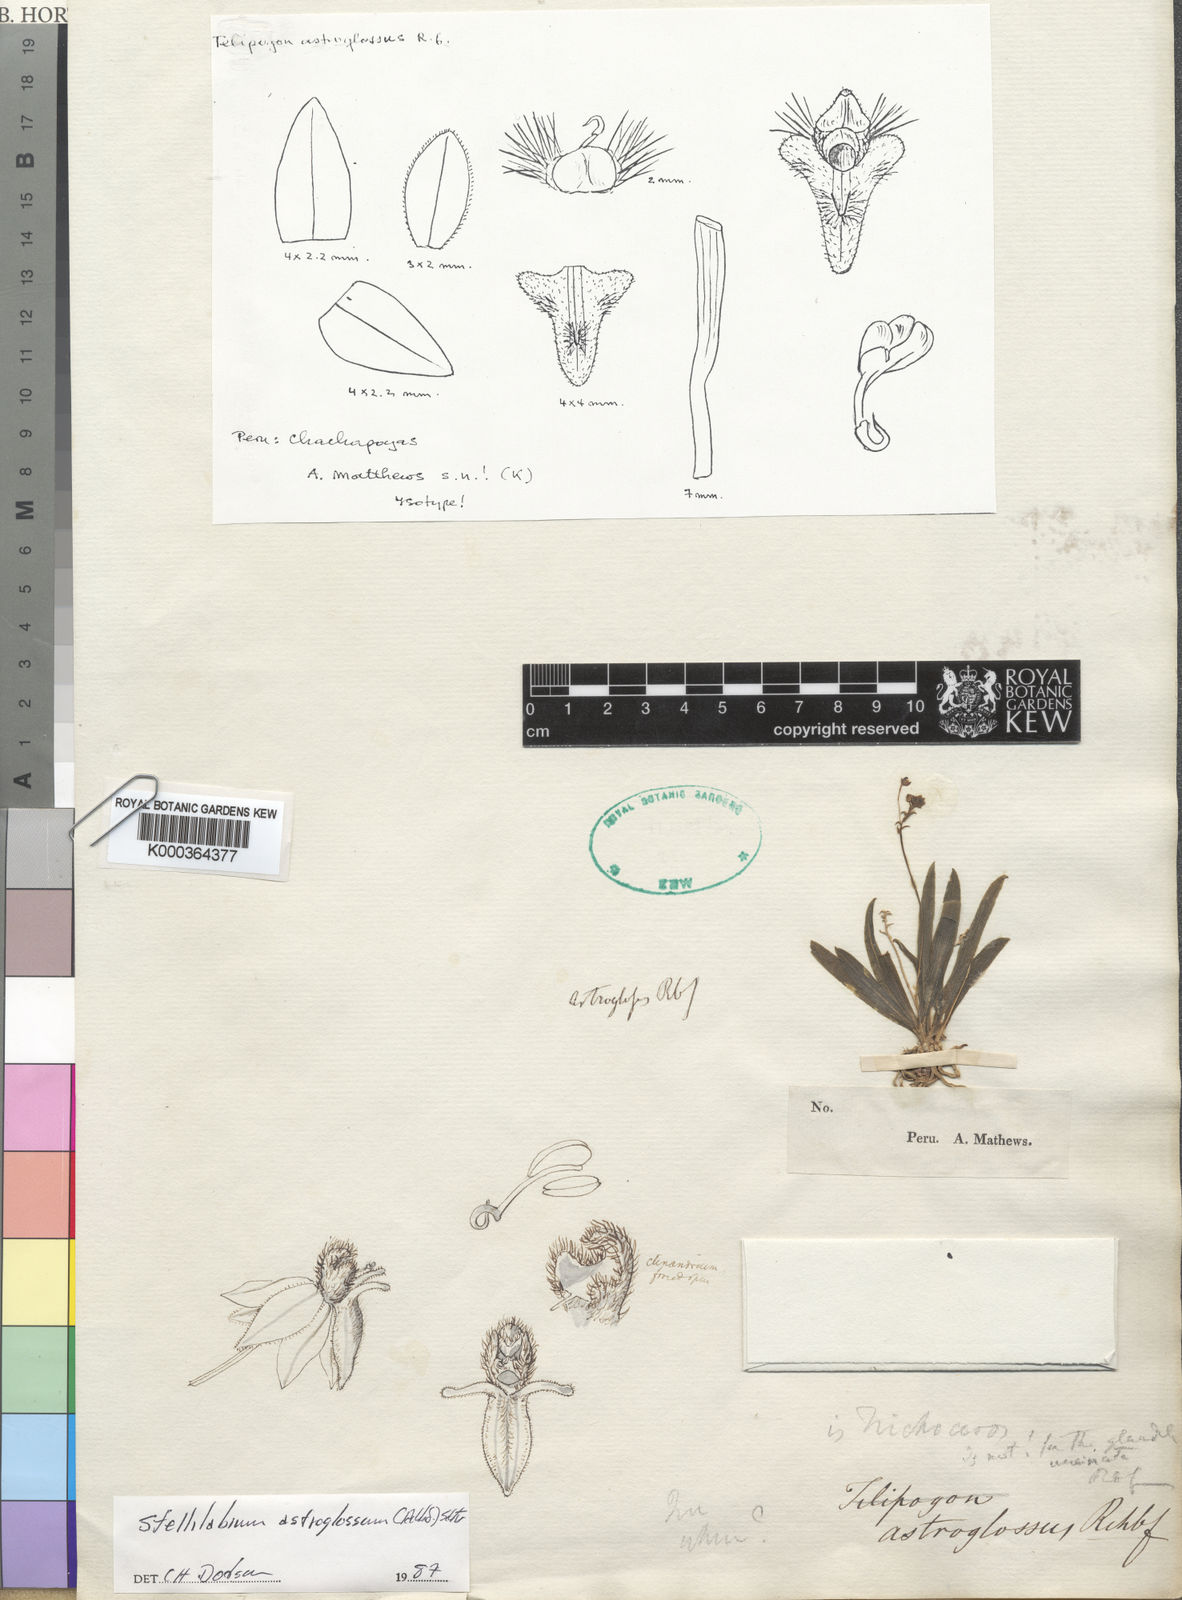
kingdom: Plantae
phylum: Tracheophyta
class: Liliopsida
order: Asparagales
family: Orchidaceae
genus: Telipogon
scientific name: Telipogon astroglossus
